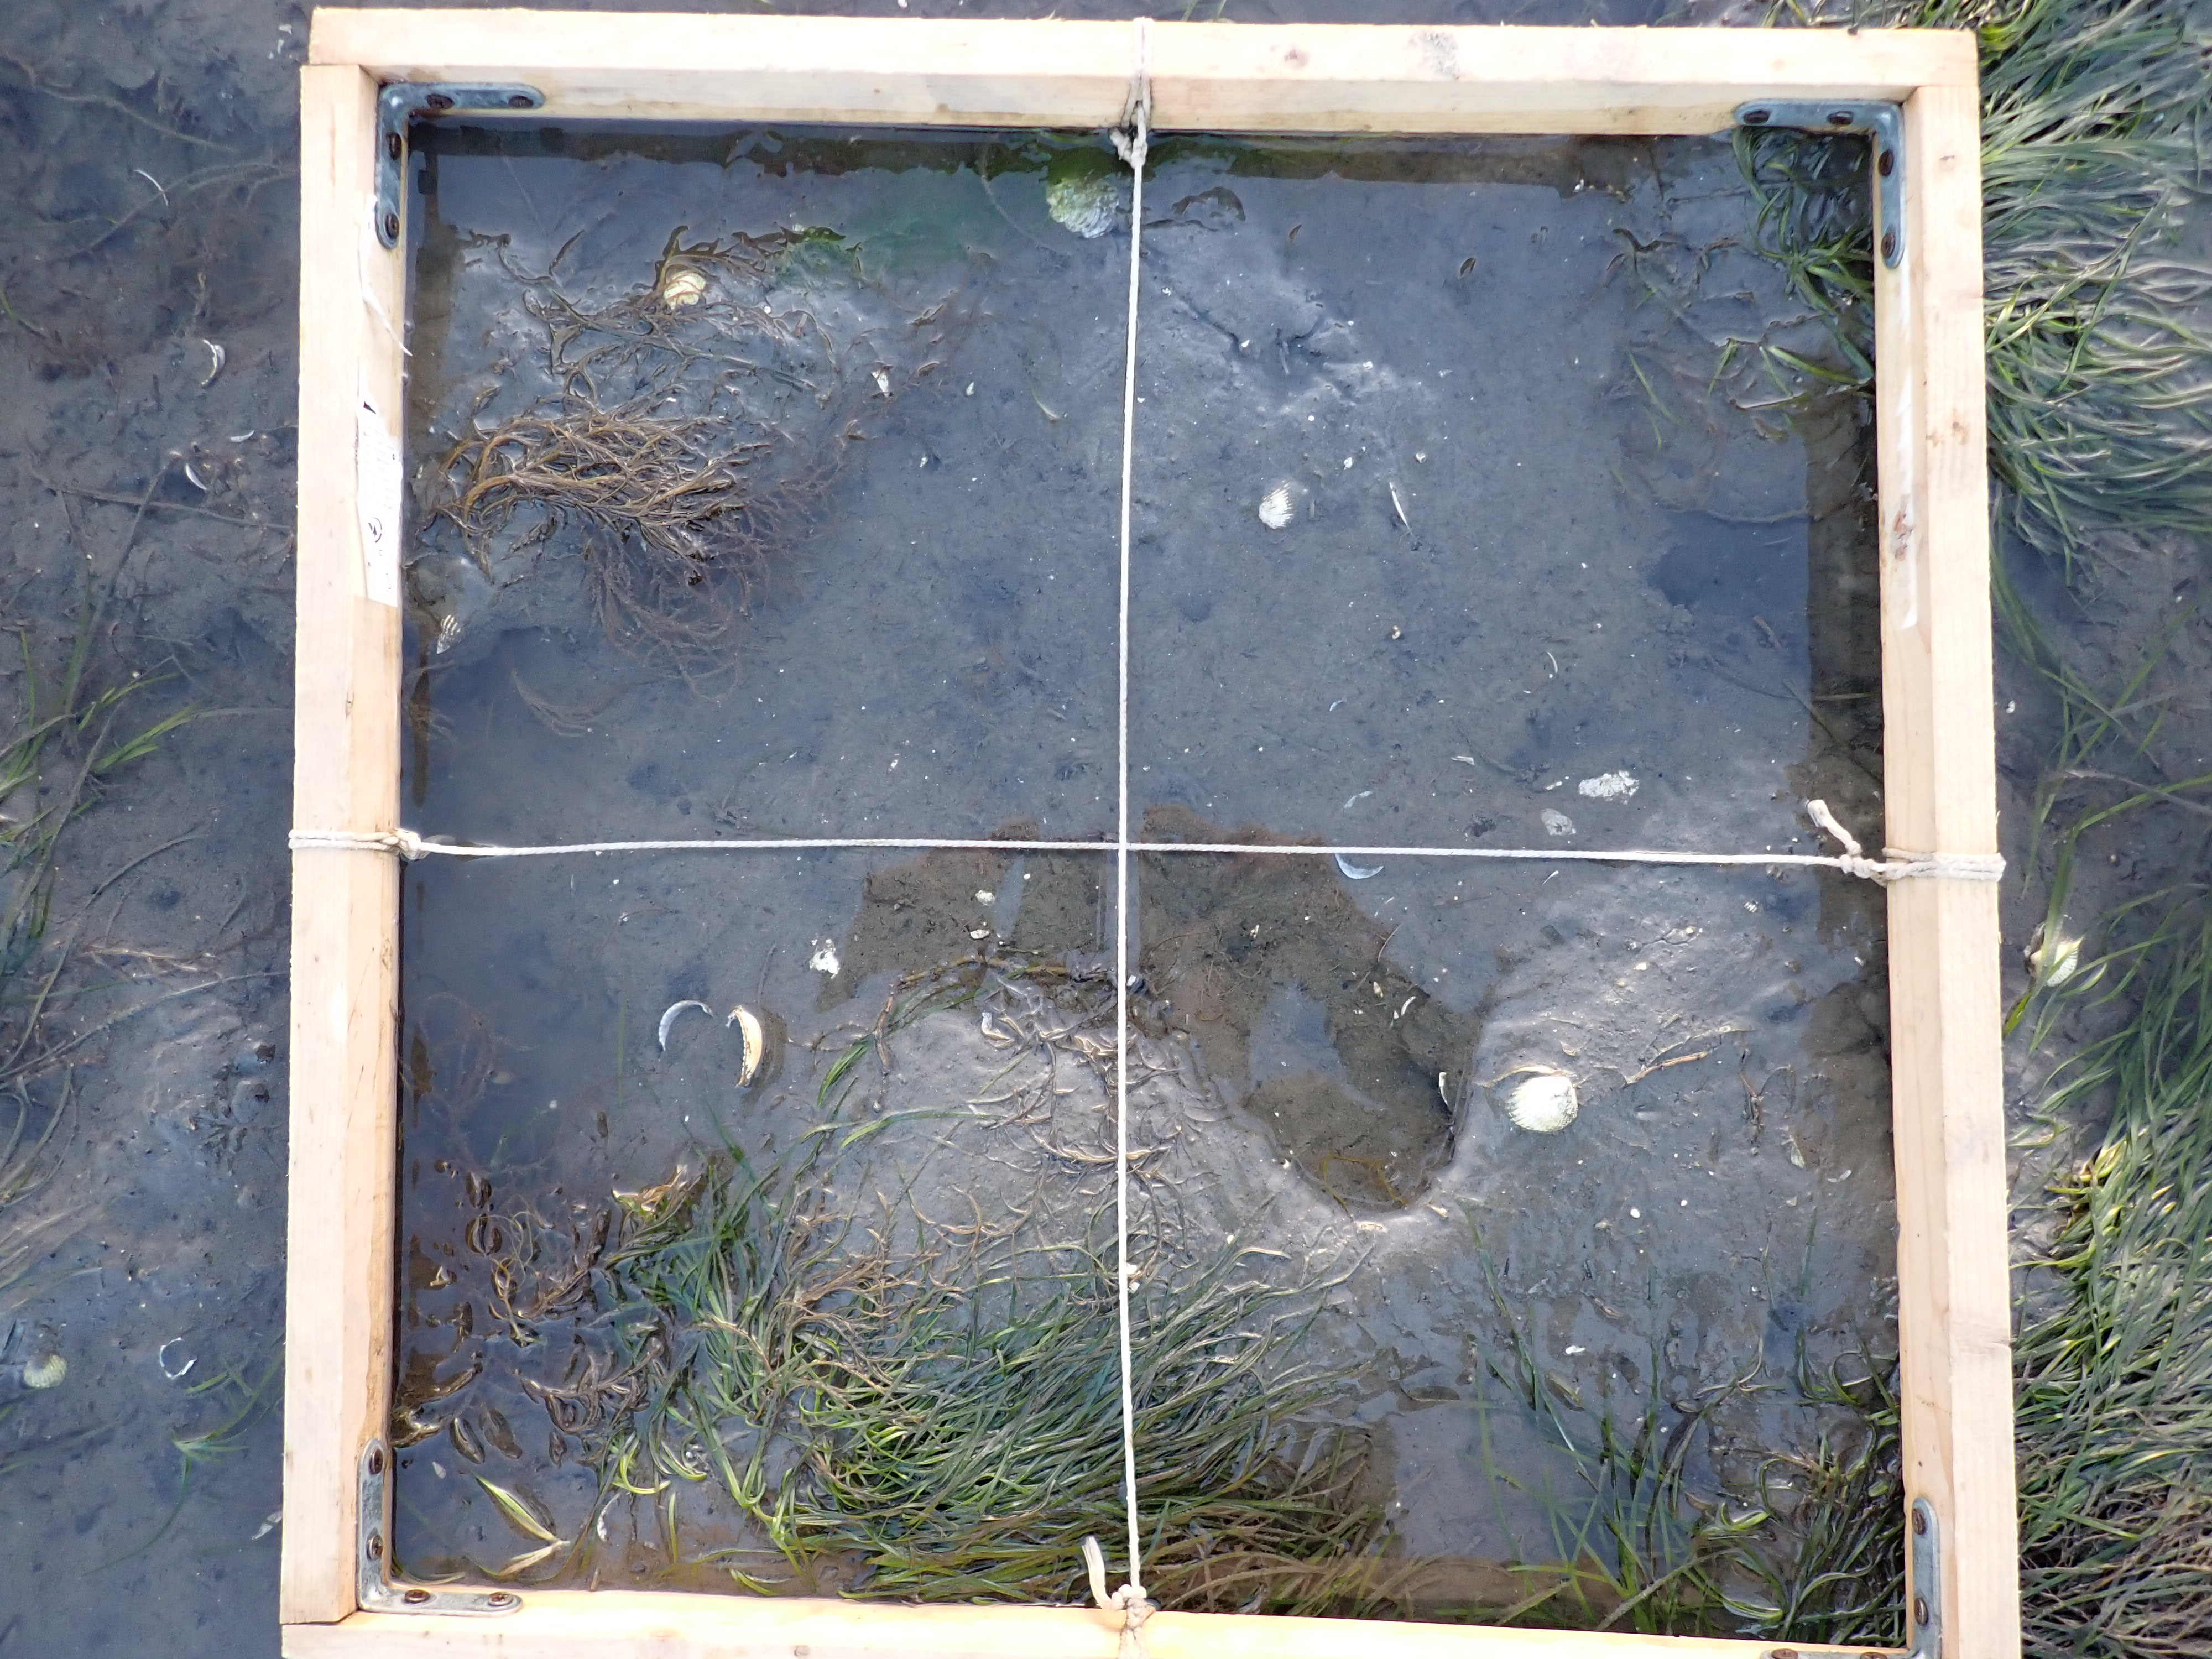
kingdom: Plantae
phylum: Rhodophyta
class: Florideophyceae
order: Gracilariales
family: Gracilariaceae
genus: Gracilaria
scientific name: Gracilaria vermiculophylla
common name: Algae
